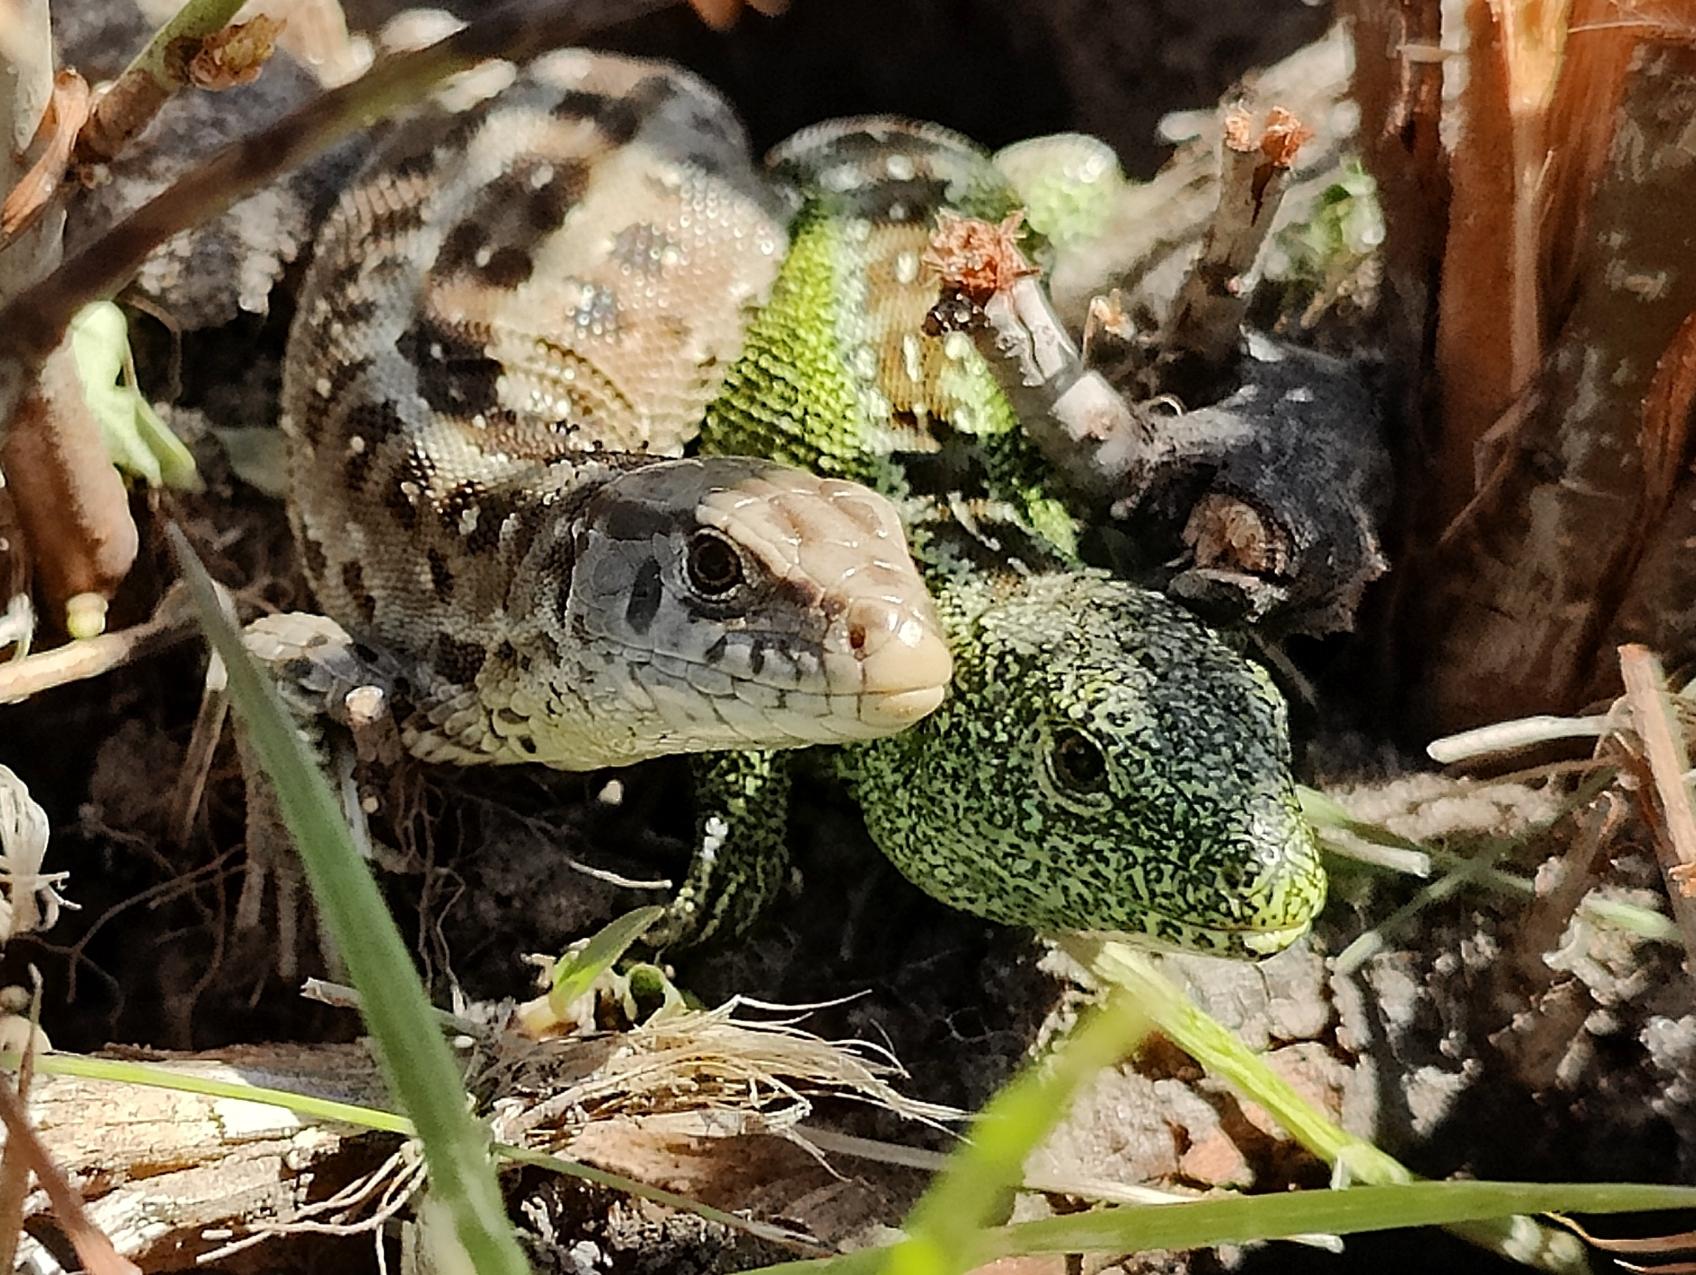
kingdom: Animalia
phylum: Chordata
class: Squamata
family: Lacertidae
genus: Lacerta
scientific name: Lacerta agilis
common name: Markfirben
